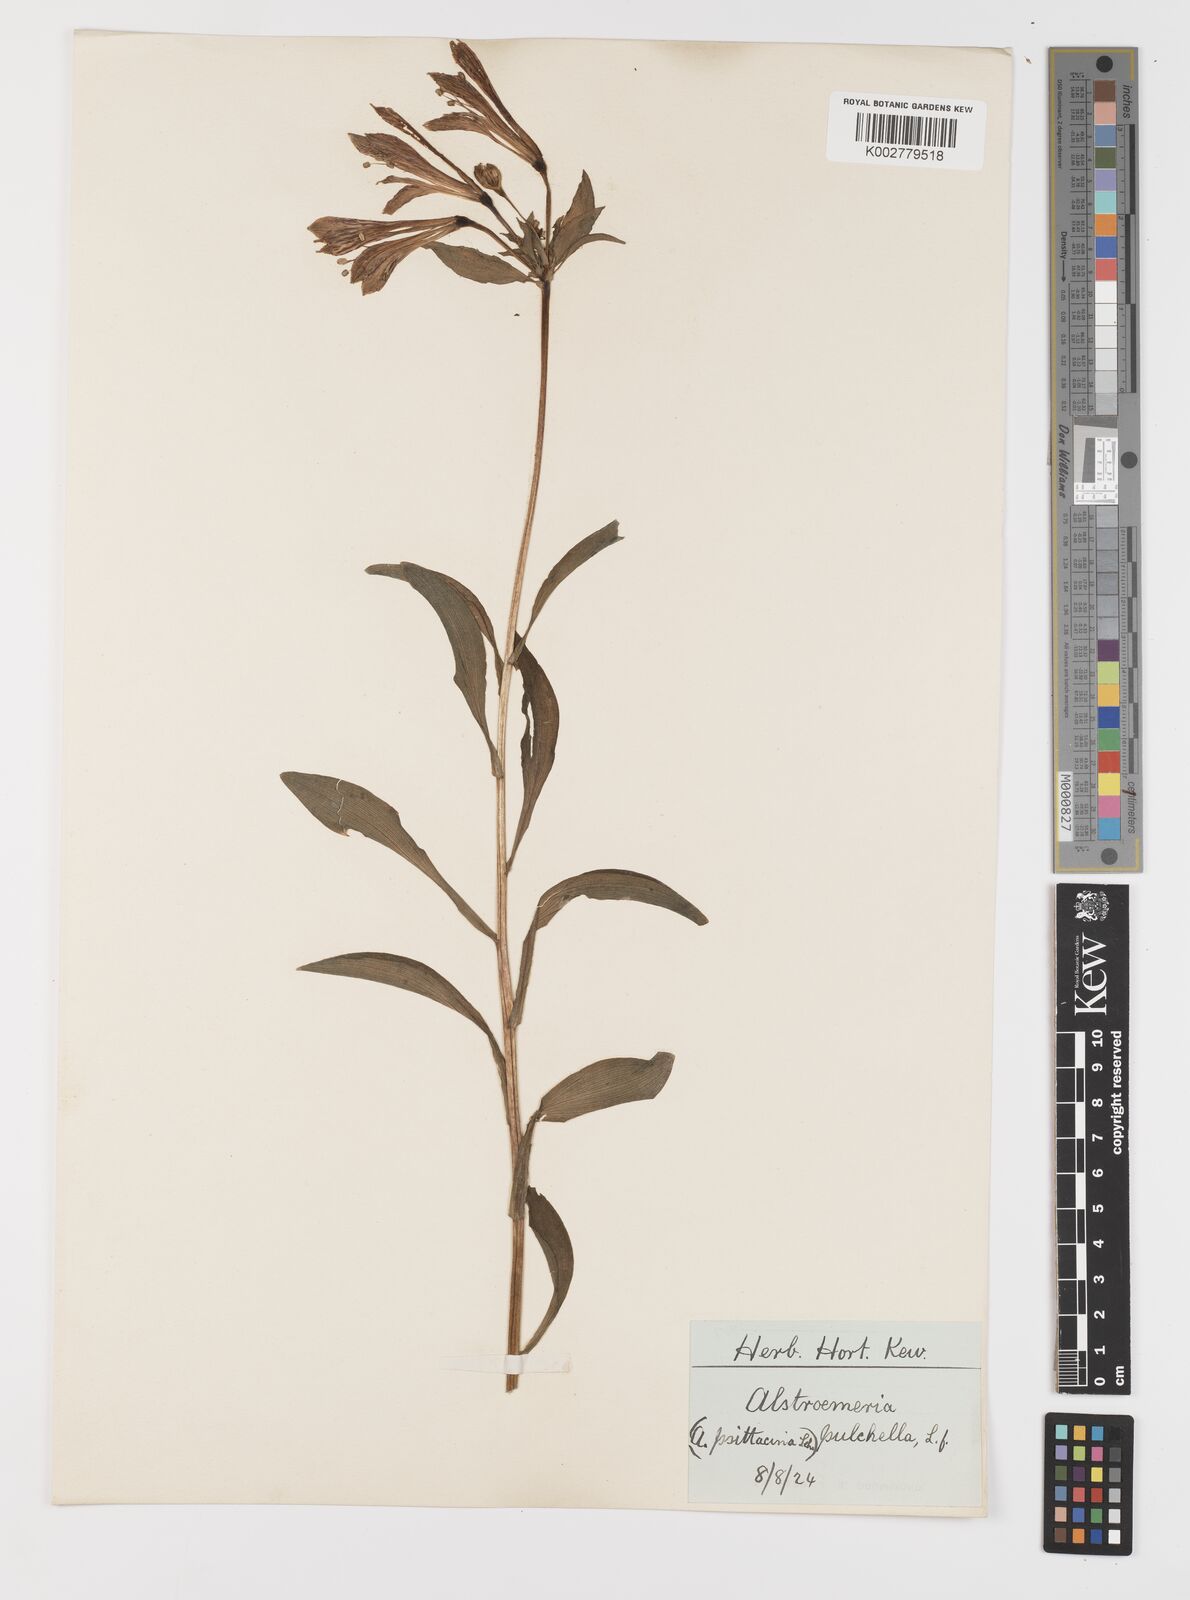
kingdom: Plantae
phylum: Tracheophyta
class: Liliopsida
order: Liliales
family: Alstroemeriaceae
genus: Alstroemeria
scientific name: Alstroemeria pelegrina
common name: Peruvian-lily
